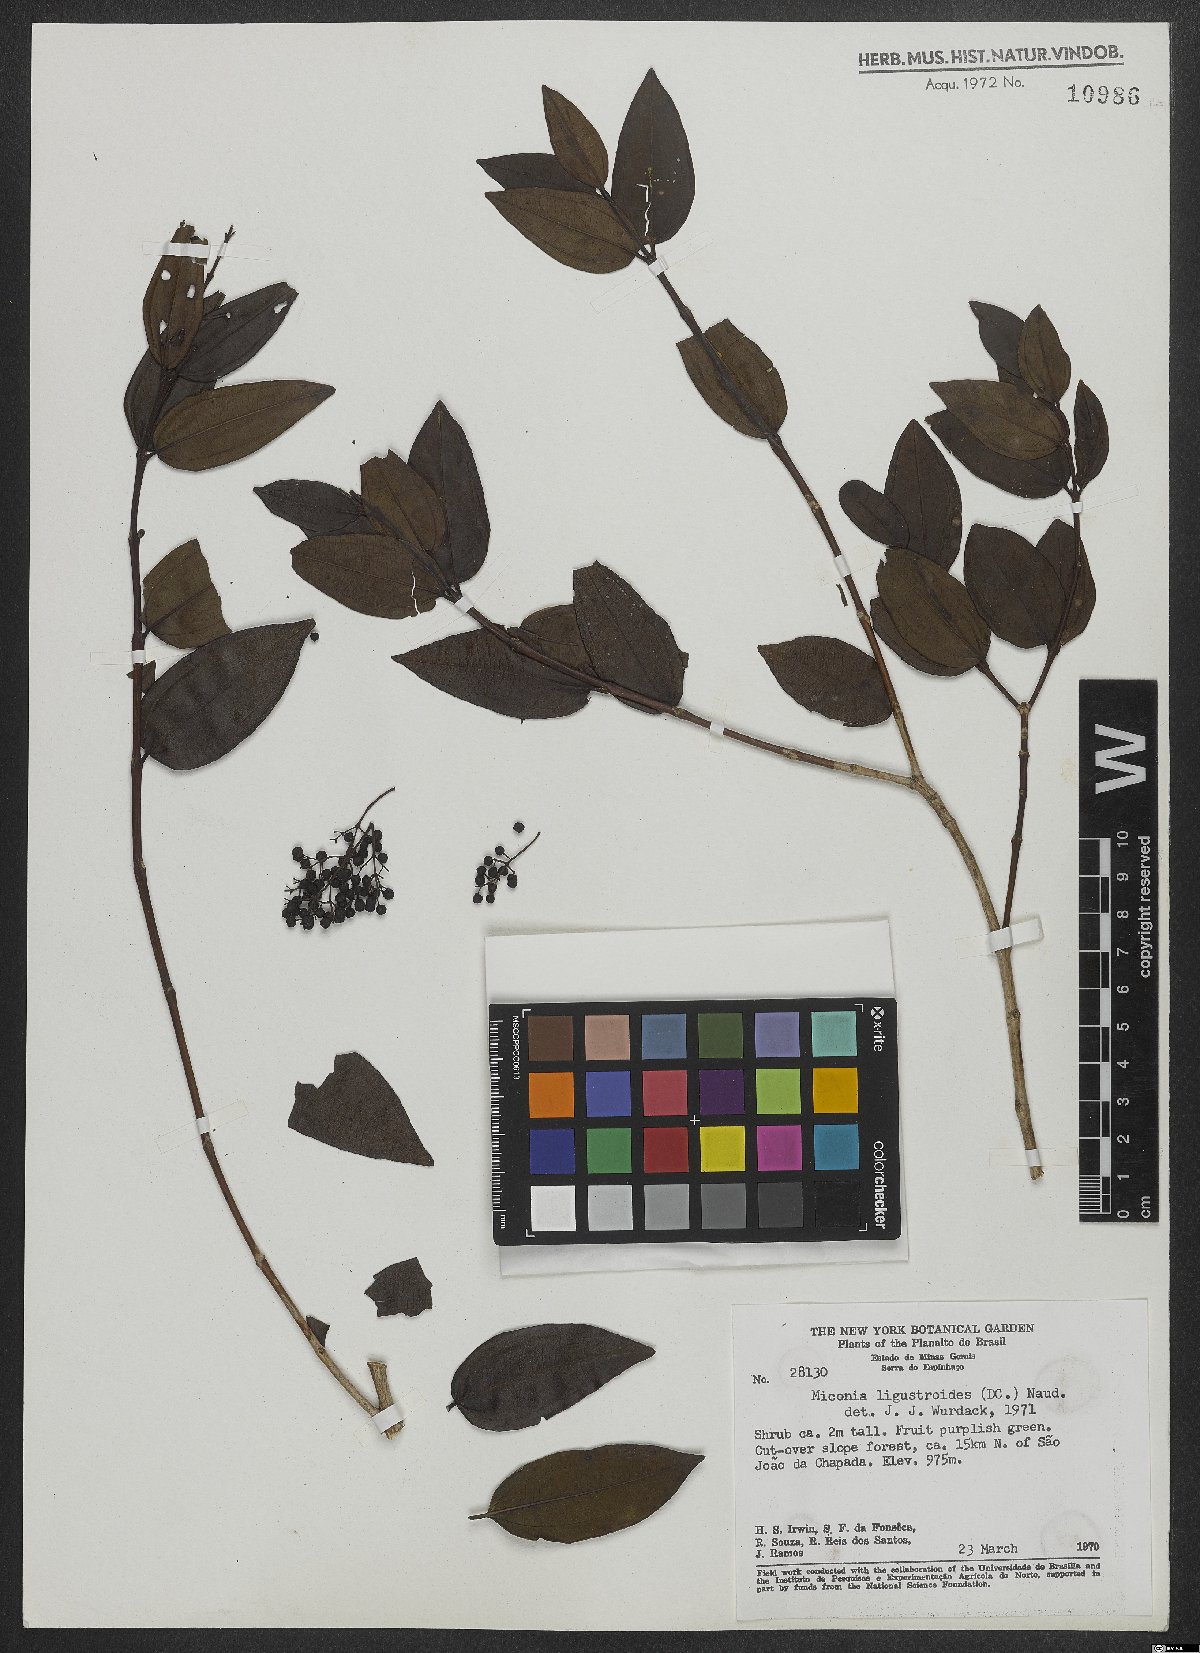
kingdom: Plantae
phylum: Tracheophyta
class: Magnoliopsida
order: Myrtales
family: Melastomataceae
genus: Miconia
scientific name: Miconia ligustroides
